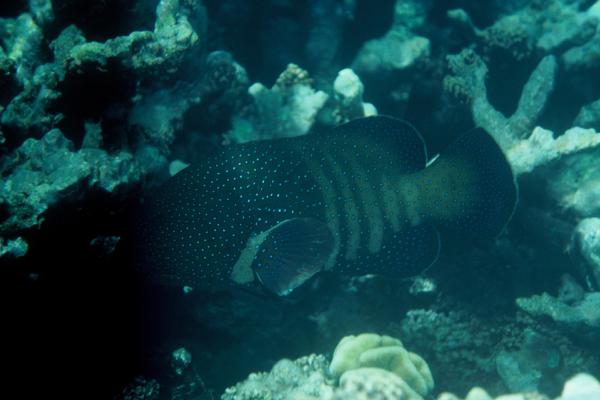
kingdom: Animalia
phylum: Chordata
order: Perciformes
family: Serranidae
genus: Cephalopholis
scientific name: Cephalopholis argus
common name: Peacock grouper
